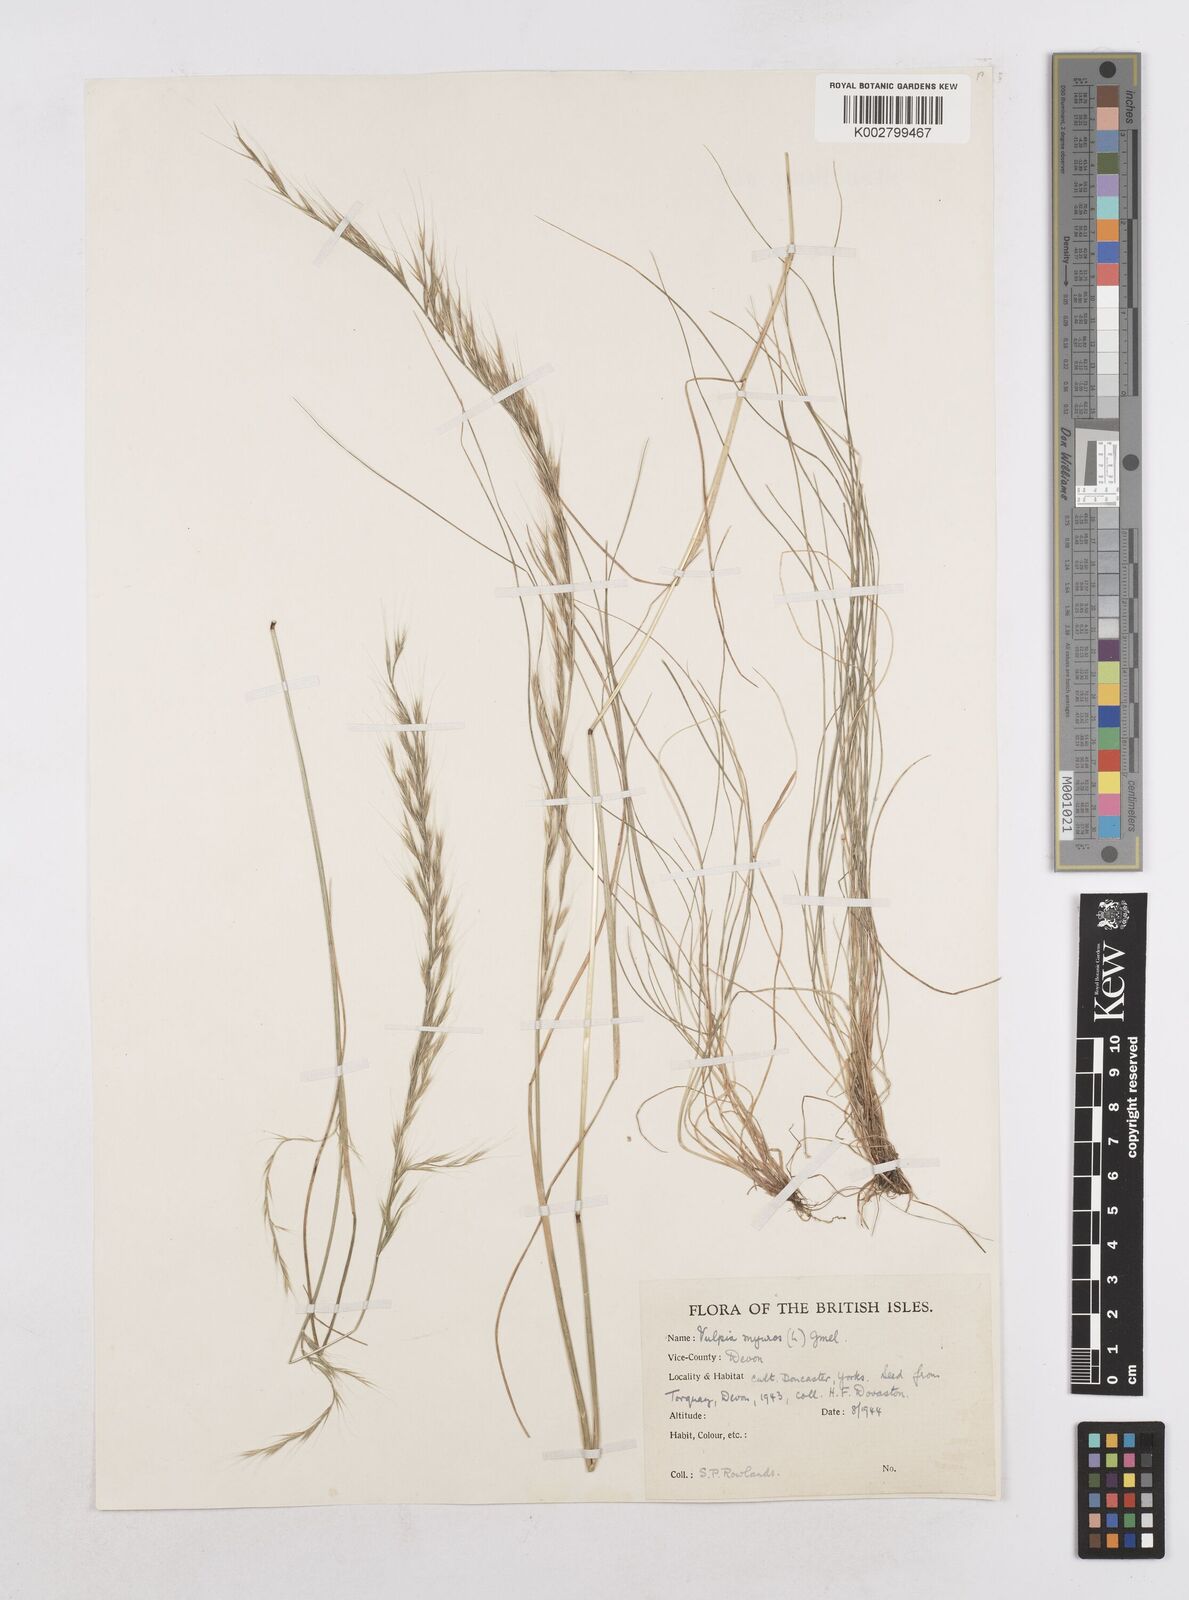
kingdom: Plantae
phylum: Tracheophyta
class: Liliopsida
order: Poales
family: Poaceae
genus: Festuca
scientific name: Festuca myuros
